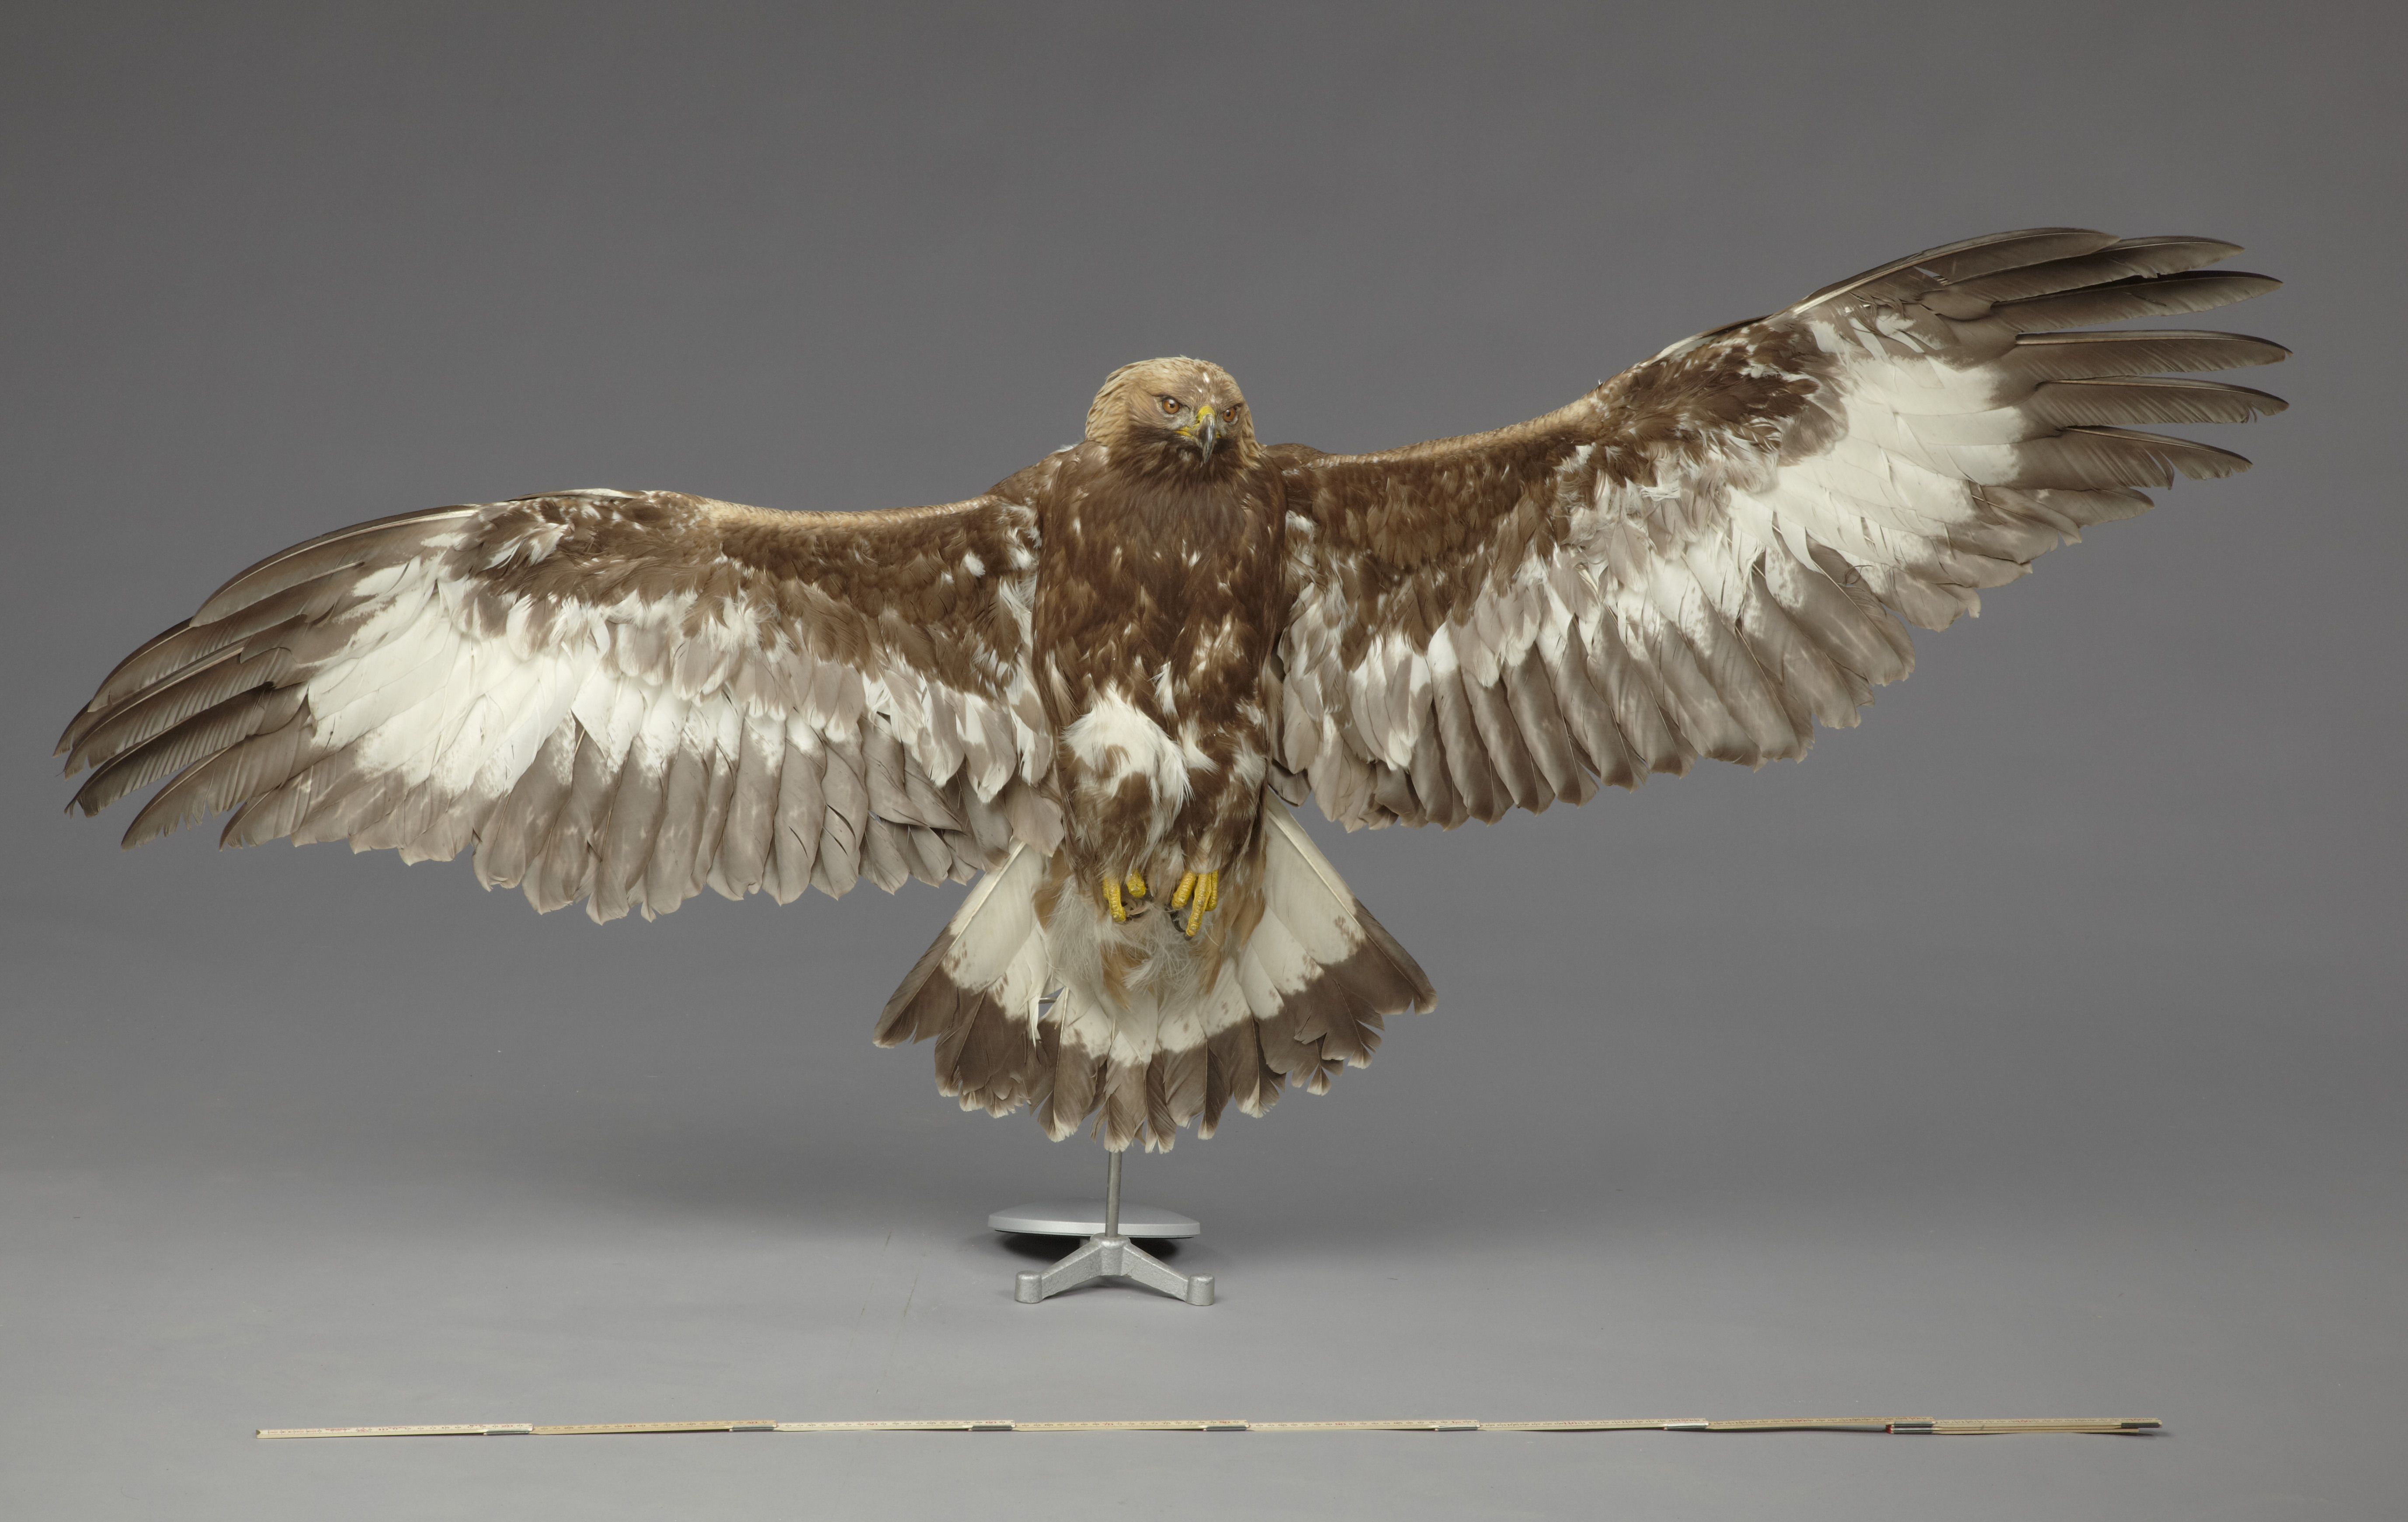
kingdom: Animalia
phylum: Chordata
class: Aves
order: Accipitriformes
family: Accipitridae
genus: Aquila
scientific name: Aquila chrysaetos
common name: Golden eagle
